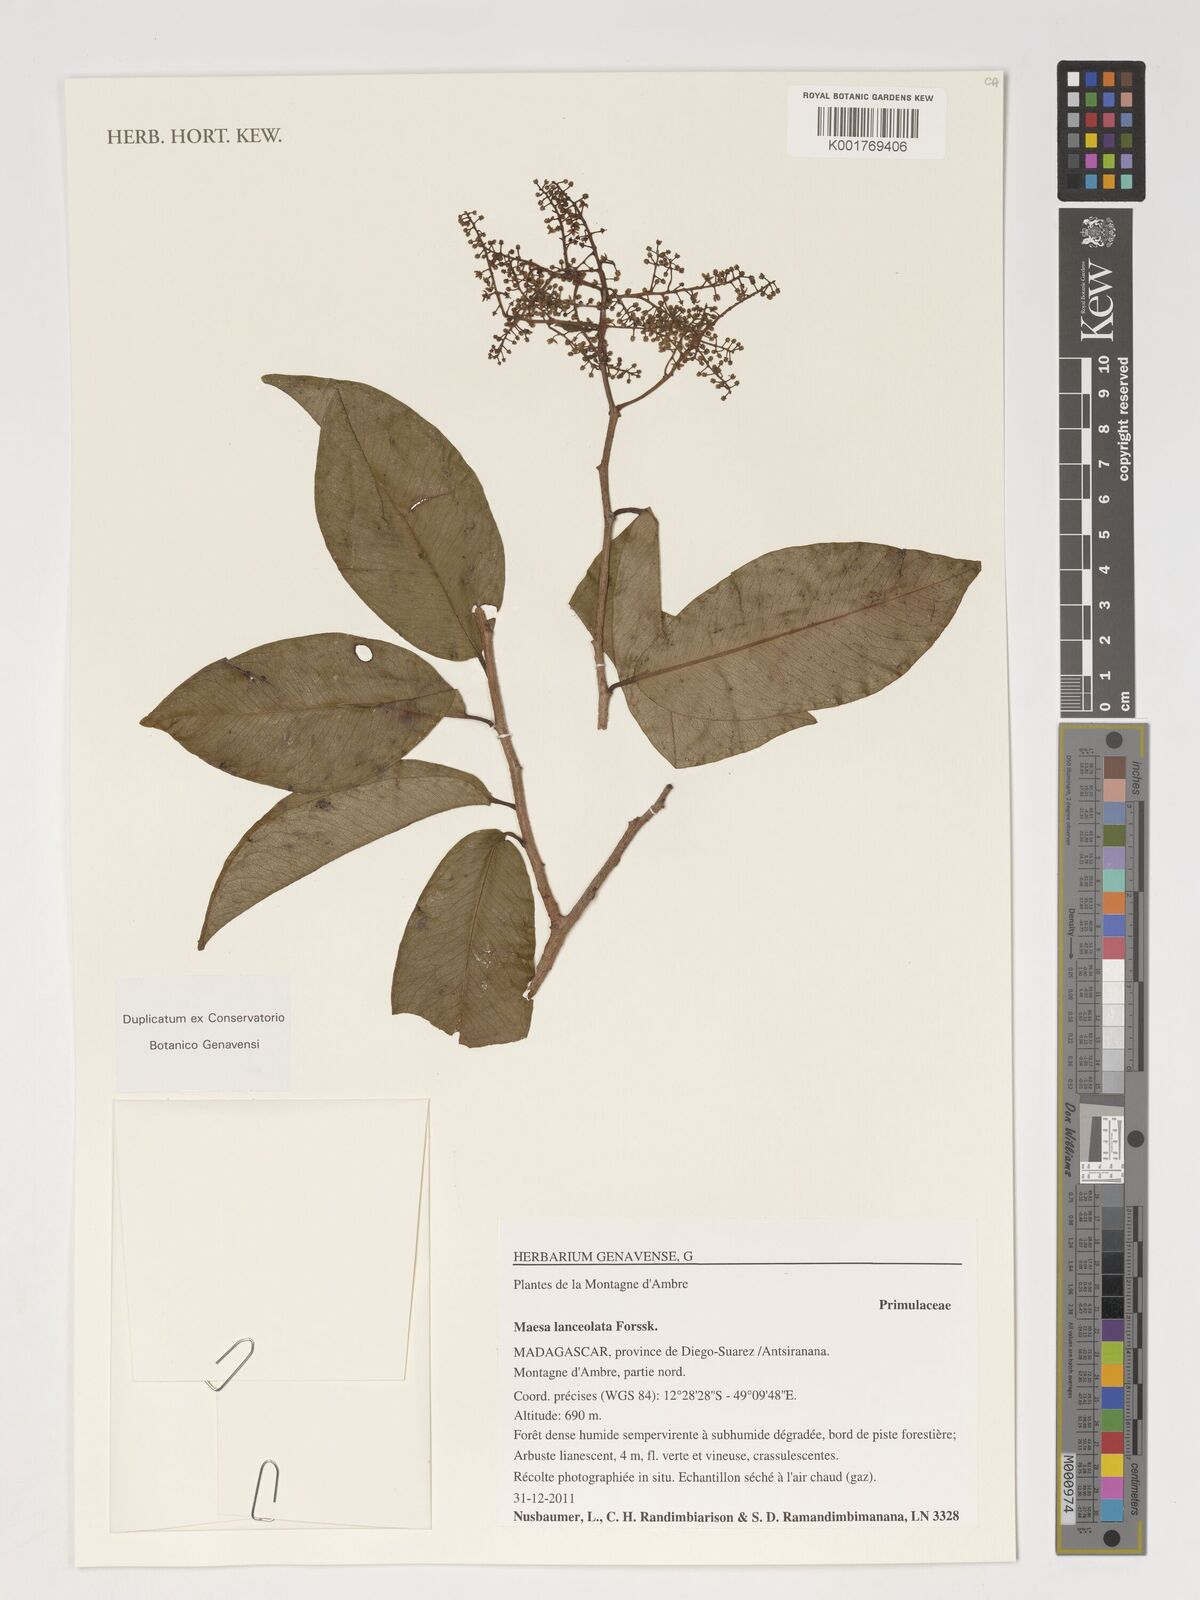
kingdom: Plantae
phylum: Tracheophyta
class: Magnoliopsida
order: Ericales
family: Primulaceae
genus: Maesa
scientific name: Maesa lanceolata
